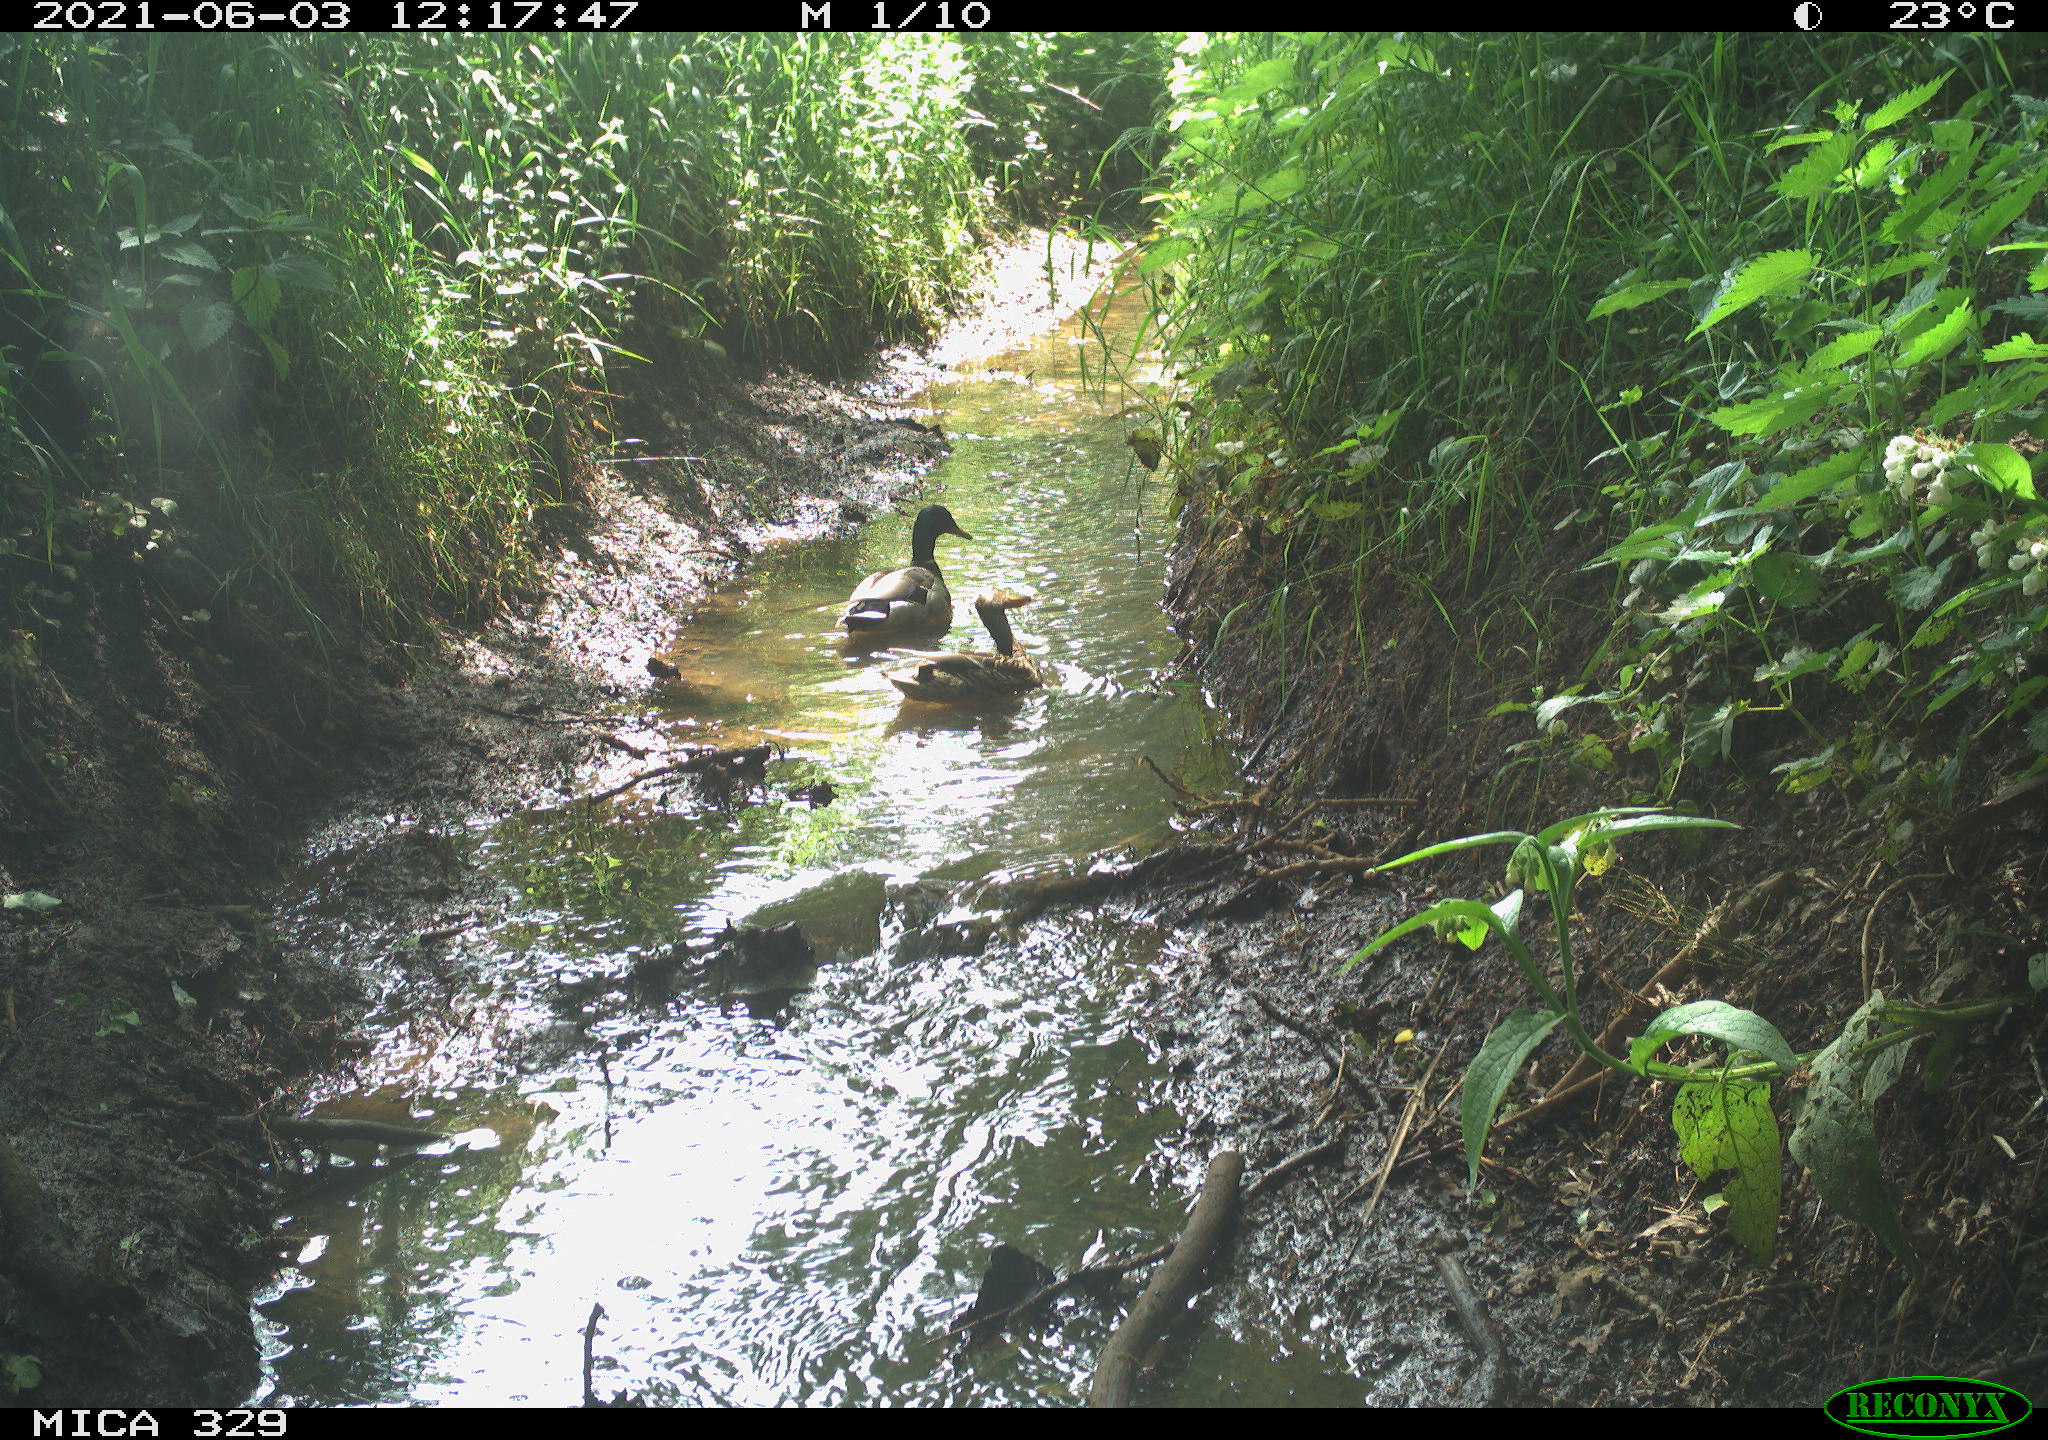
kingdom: Animalia
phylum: Chordata
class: Aves
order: Anseriformes
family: Anatidae
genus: Anas
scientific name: Anas platyrhynchos
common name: Mallard
